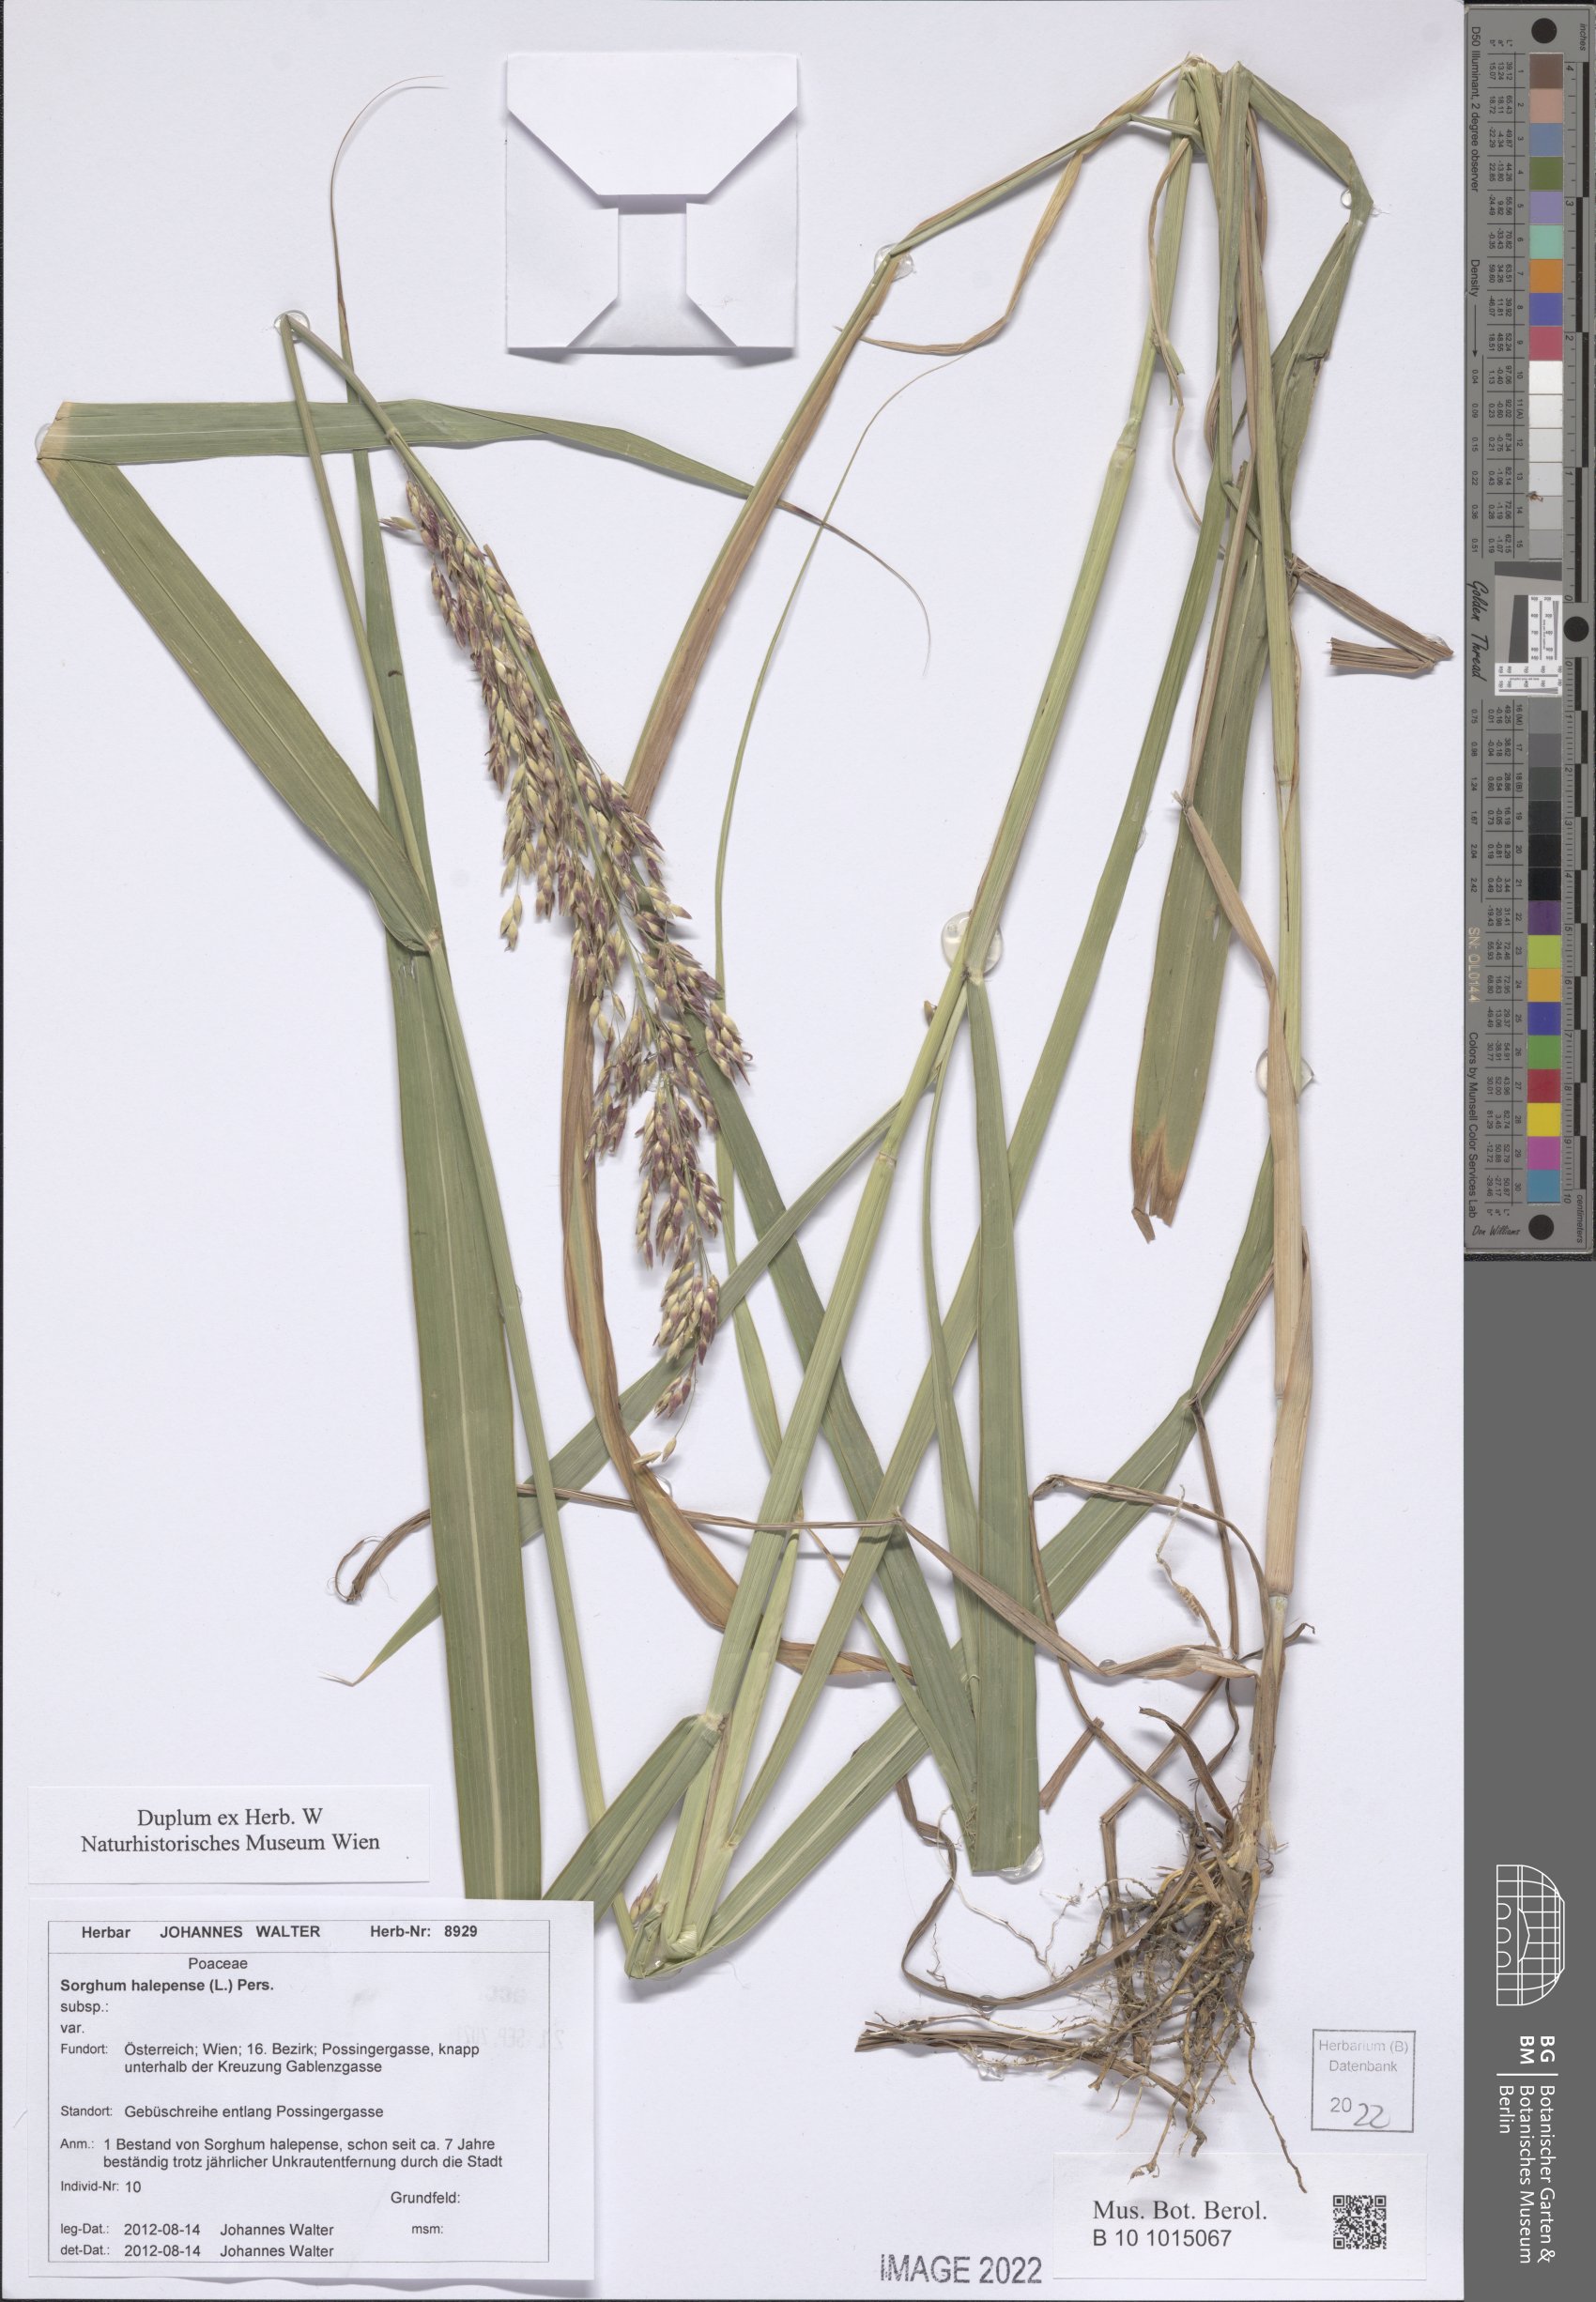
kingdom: Plantae
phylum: Tracheophyta
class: Liliopsida
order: Poales
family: Poaceae
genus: Sorghum
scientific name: Sorghum halepense
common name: Johnson-grass
